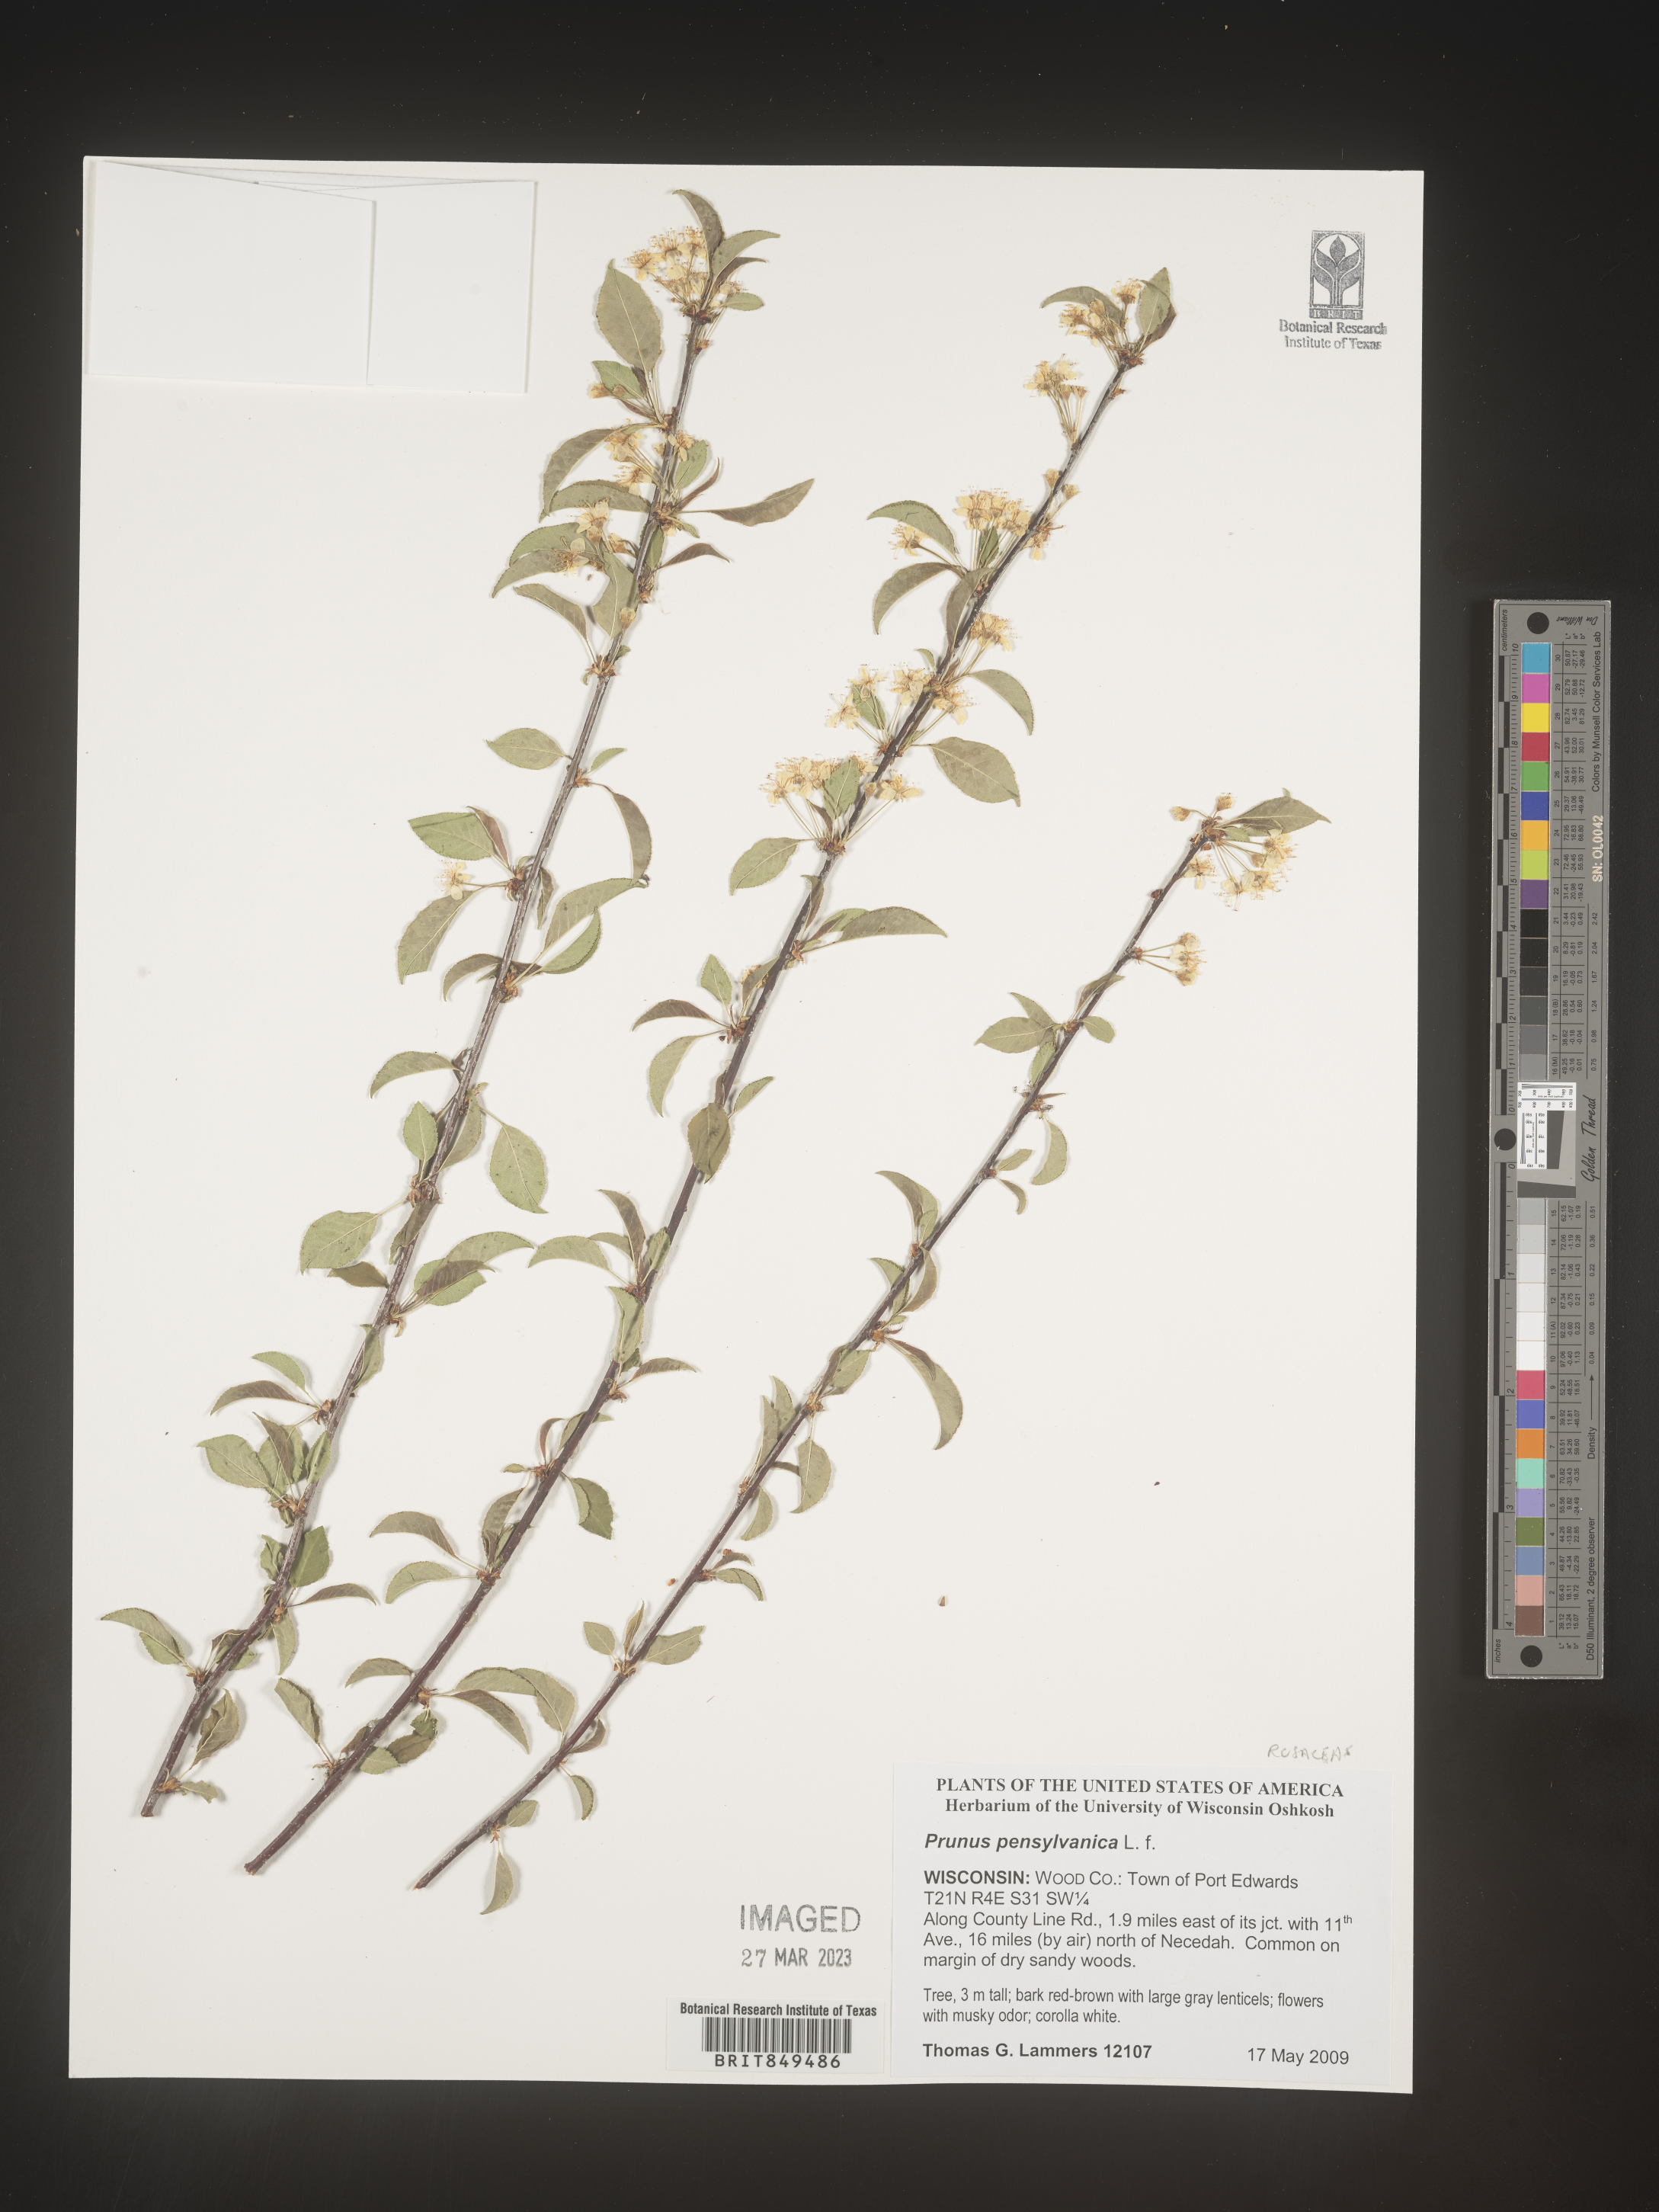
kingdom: Plantae
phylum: Tracheophyta
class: Magnoliopsida
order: Rosales
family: Rosaceae
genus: Prunus
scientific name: Prunus pensylvanica
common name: Pin cherry
